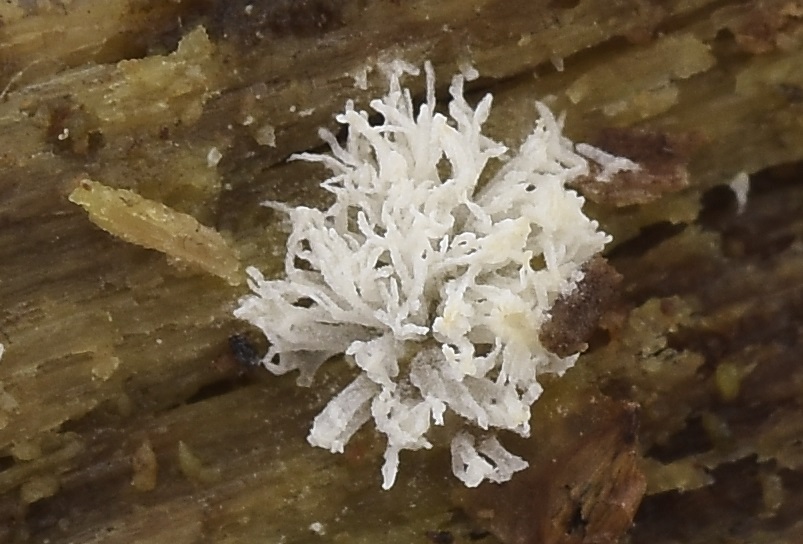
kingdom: Protozoa
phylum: Mycetozoa
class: Protosteliomycetes
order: Ceratiomyxales
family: Ceratiomyxaceae
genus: Ceratiomyxa
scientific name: Ceratiomyxa fruticulosa
